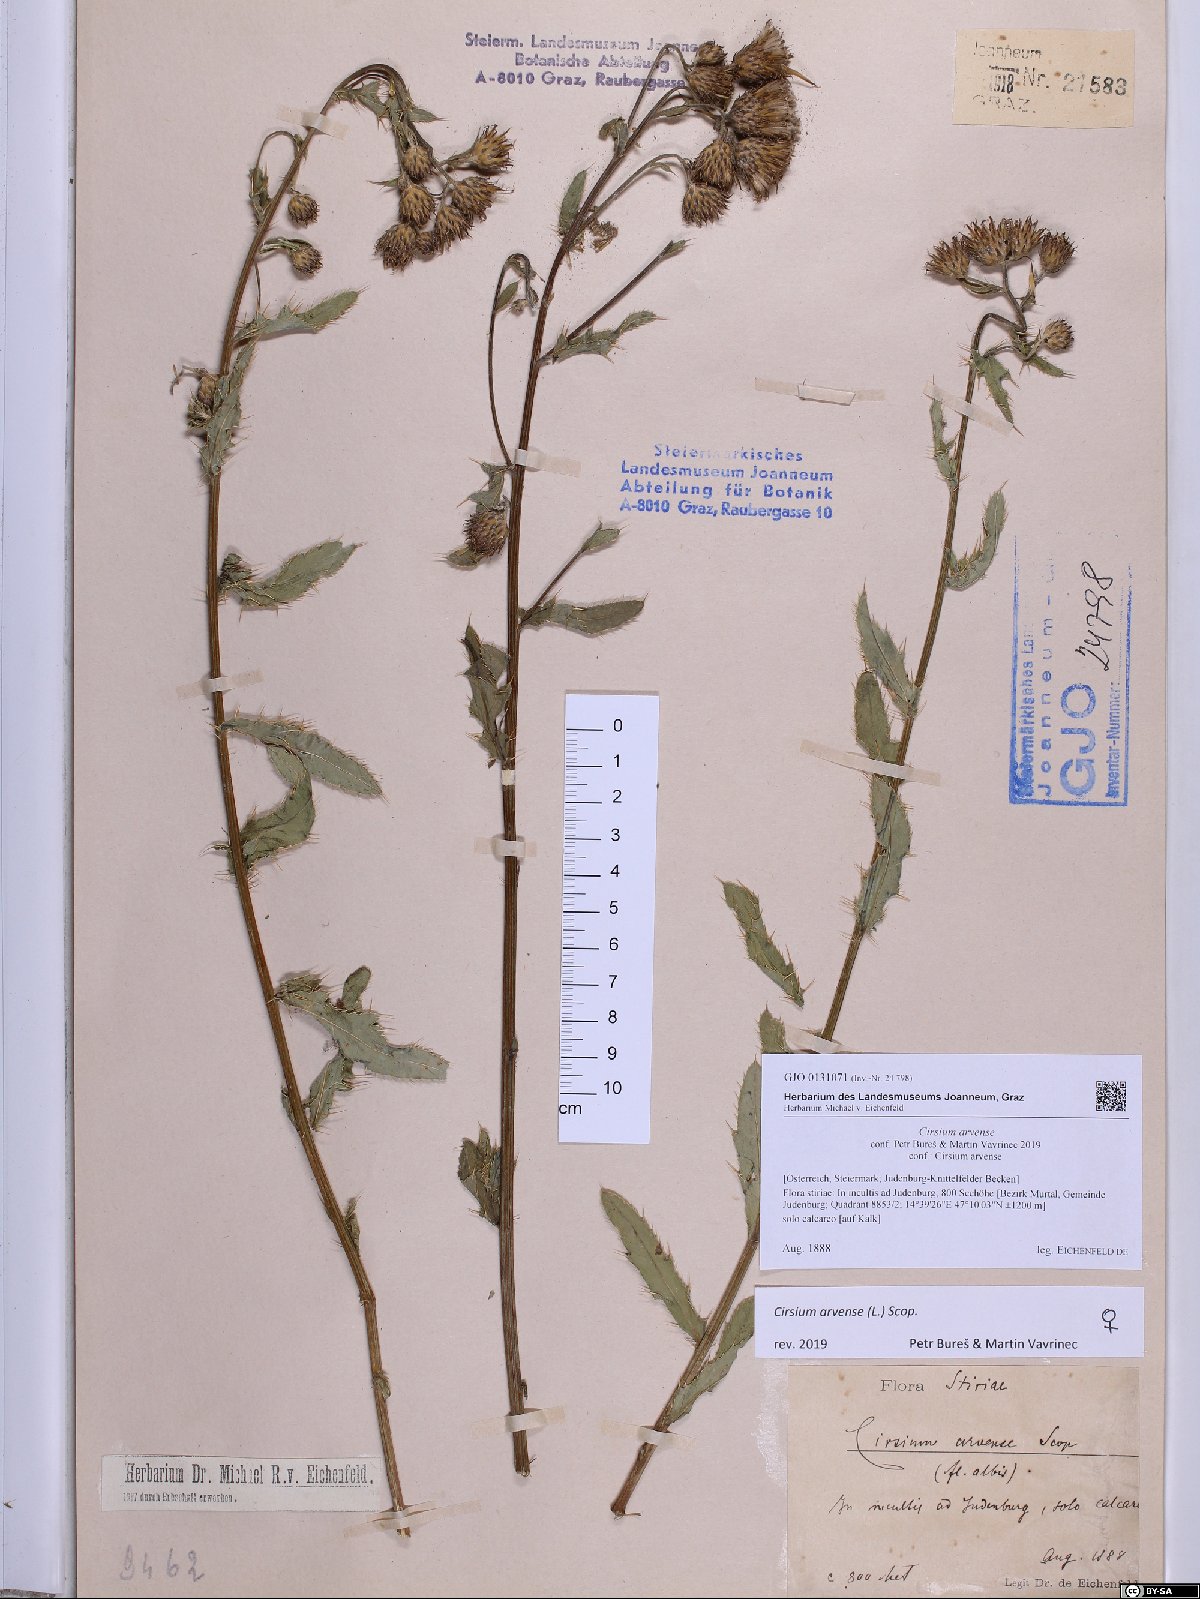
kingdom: Plantae
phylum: Tracheophyta
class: Magnoliopsida
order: Asterales
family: Asteraceae
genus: Cirsium
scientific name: Cirsium arvense
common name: Creeping thistle
